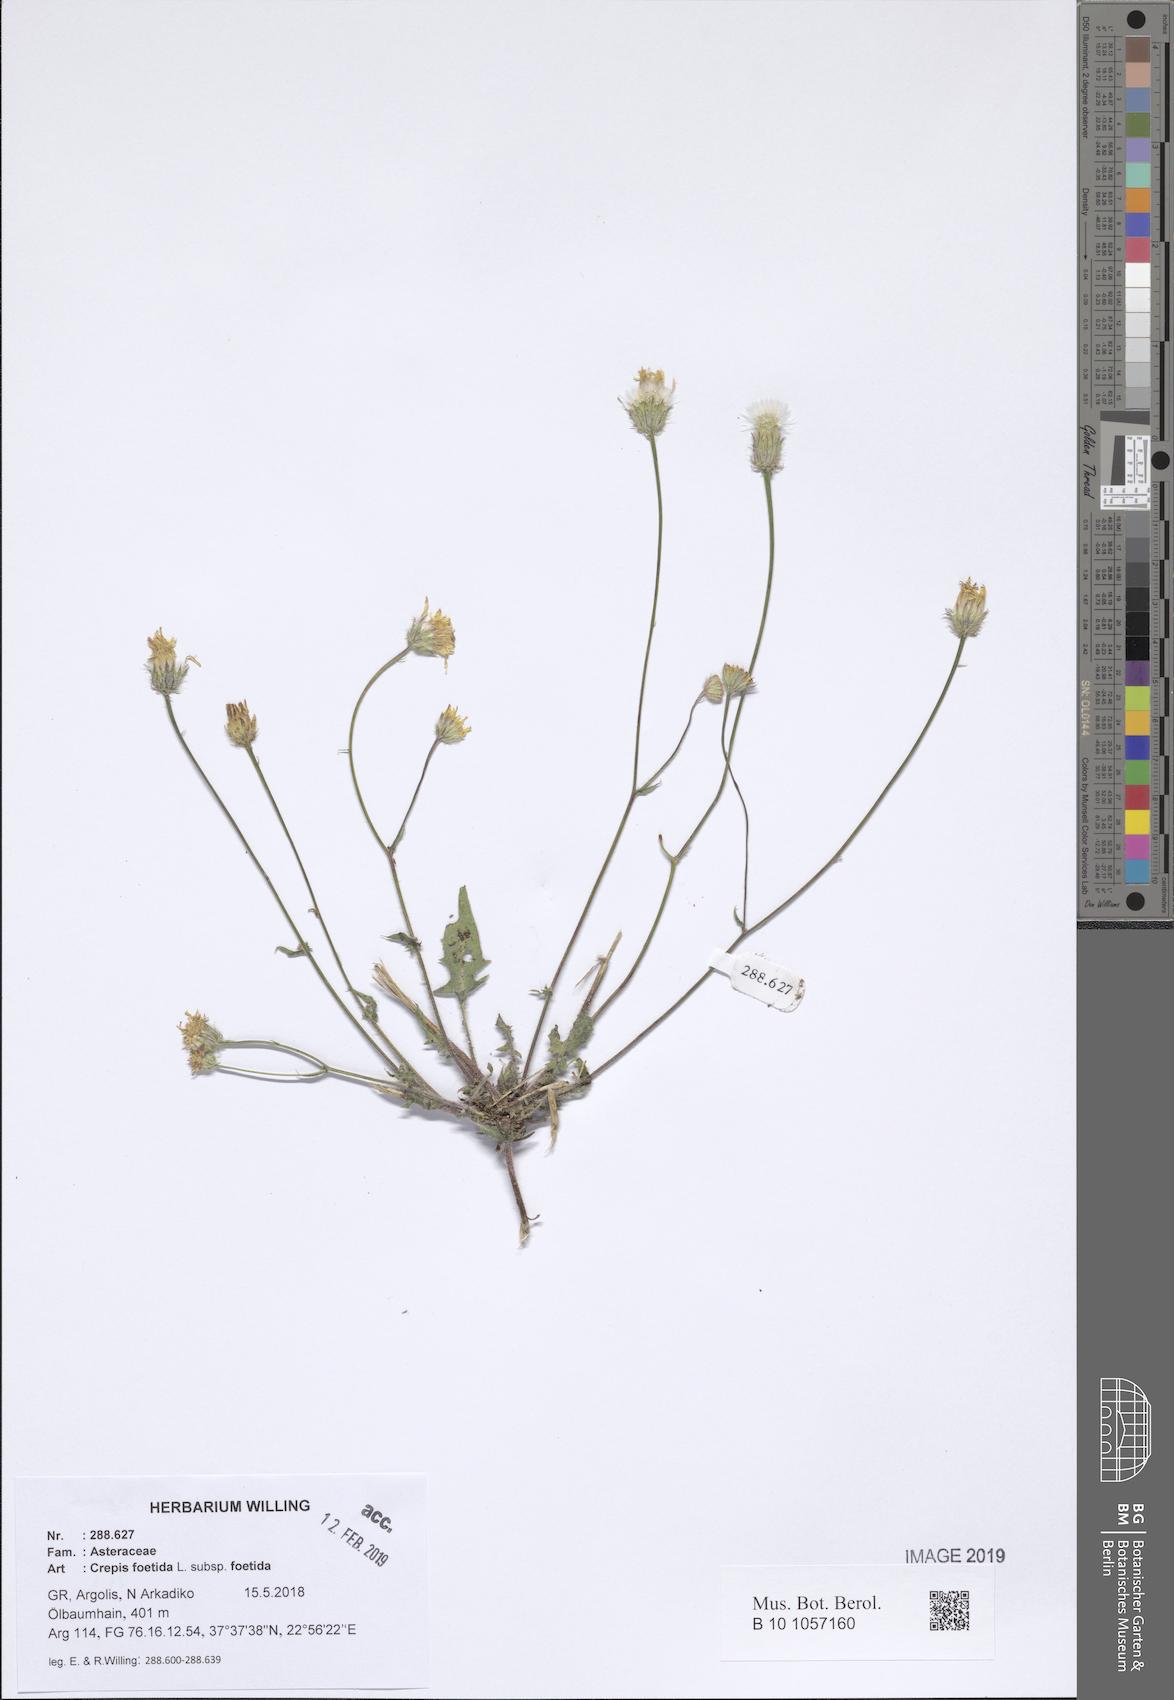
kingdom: Plantae
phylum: Tracheophyta
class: Magnoliopsida
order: Asterales
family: Asteraceae
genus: Crepis
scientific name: Crepis foetida
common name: Stinking hawk's-beard
